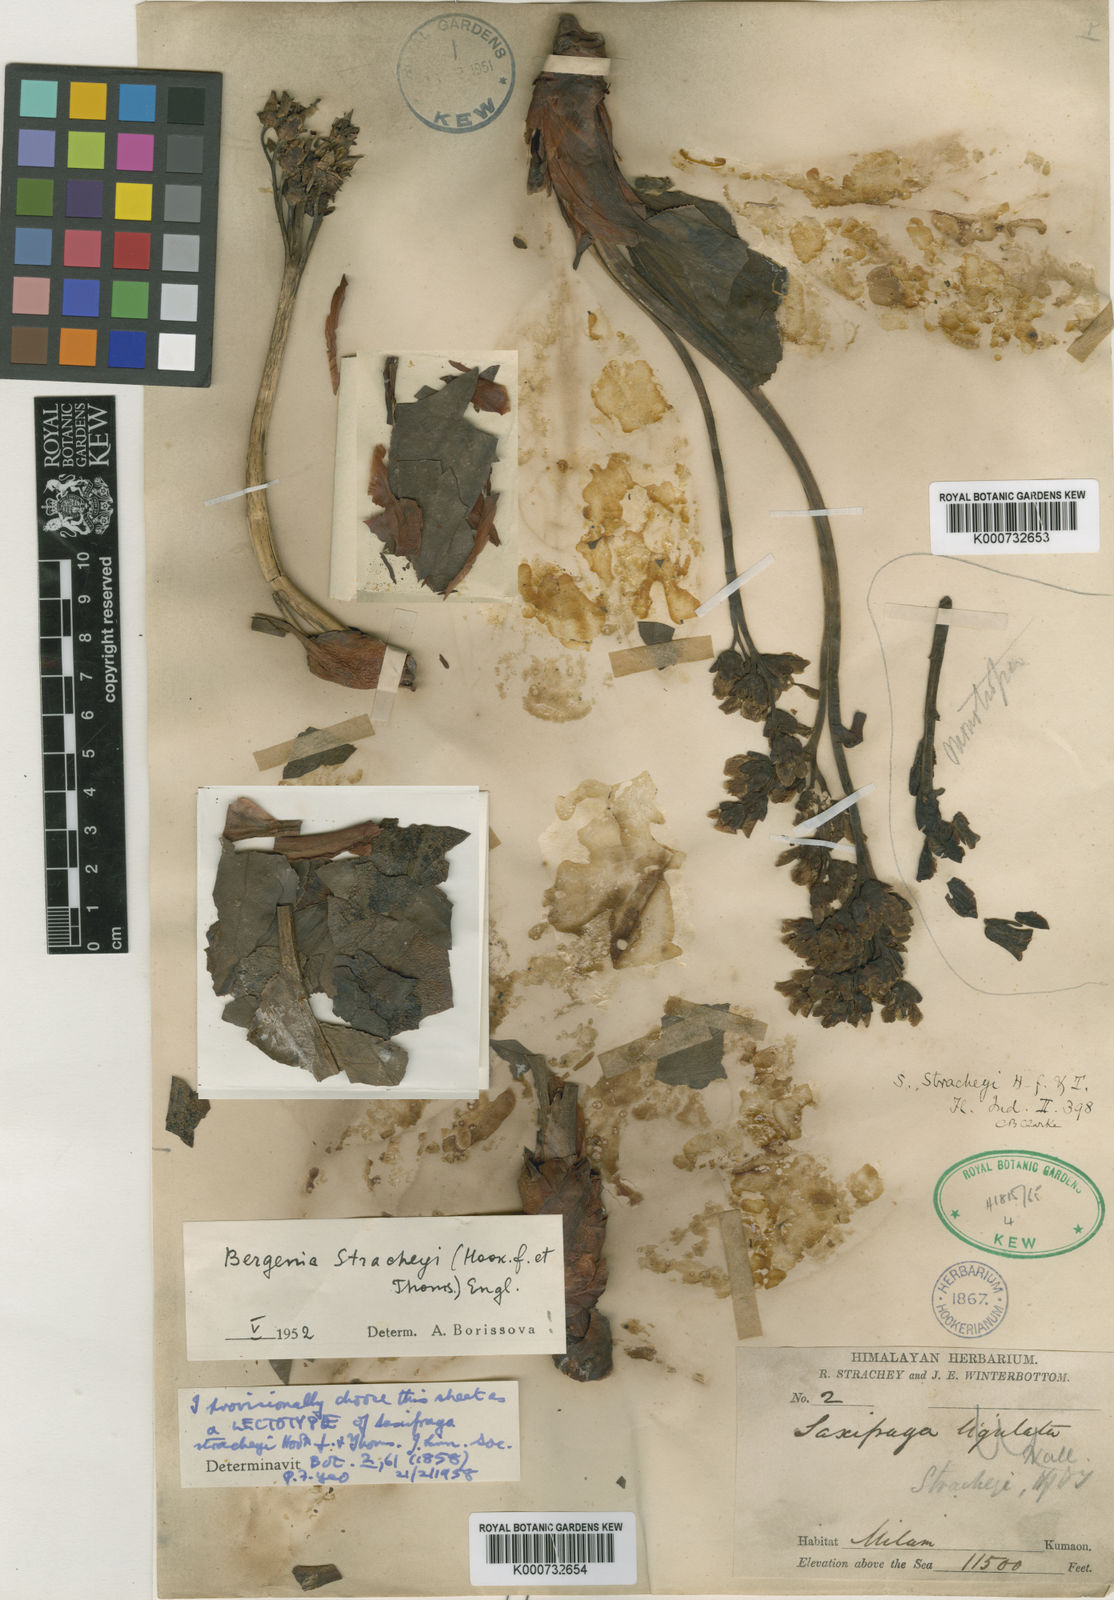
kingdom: Plantae
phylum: Tracheophyta
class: Magnoliopsida
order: Saxifragales
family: Saxifragaceae
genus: Bergenia
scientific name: Bergenia stracheyi
